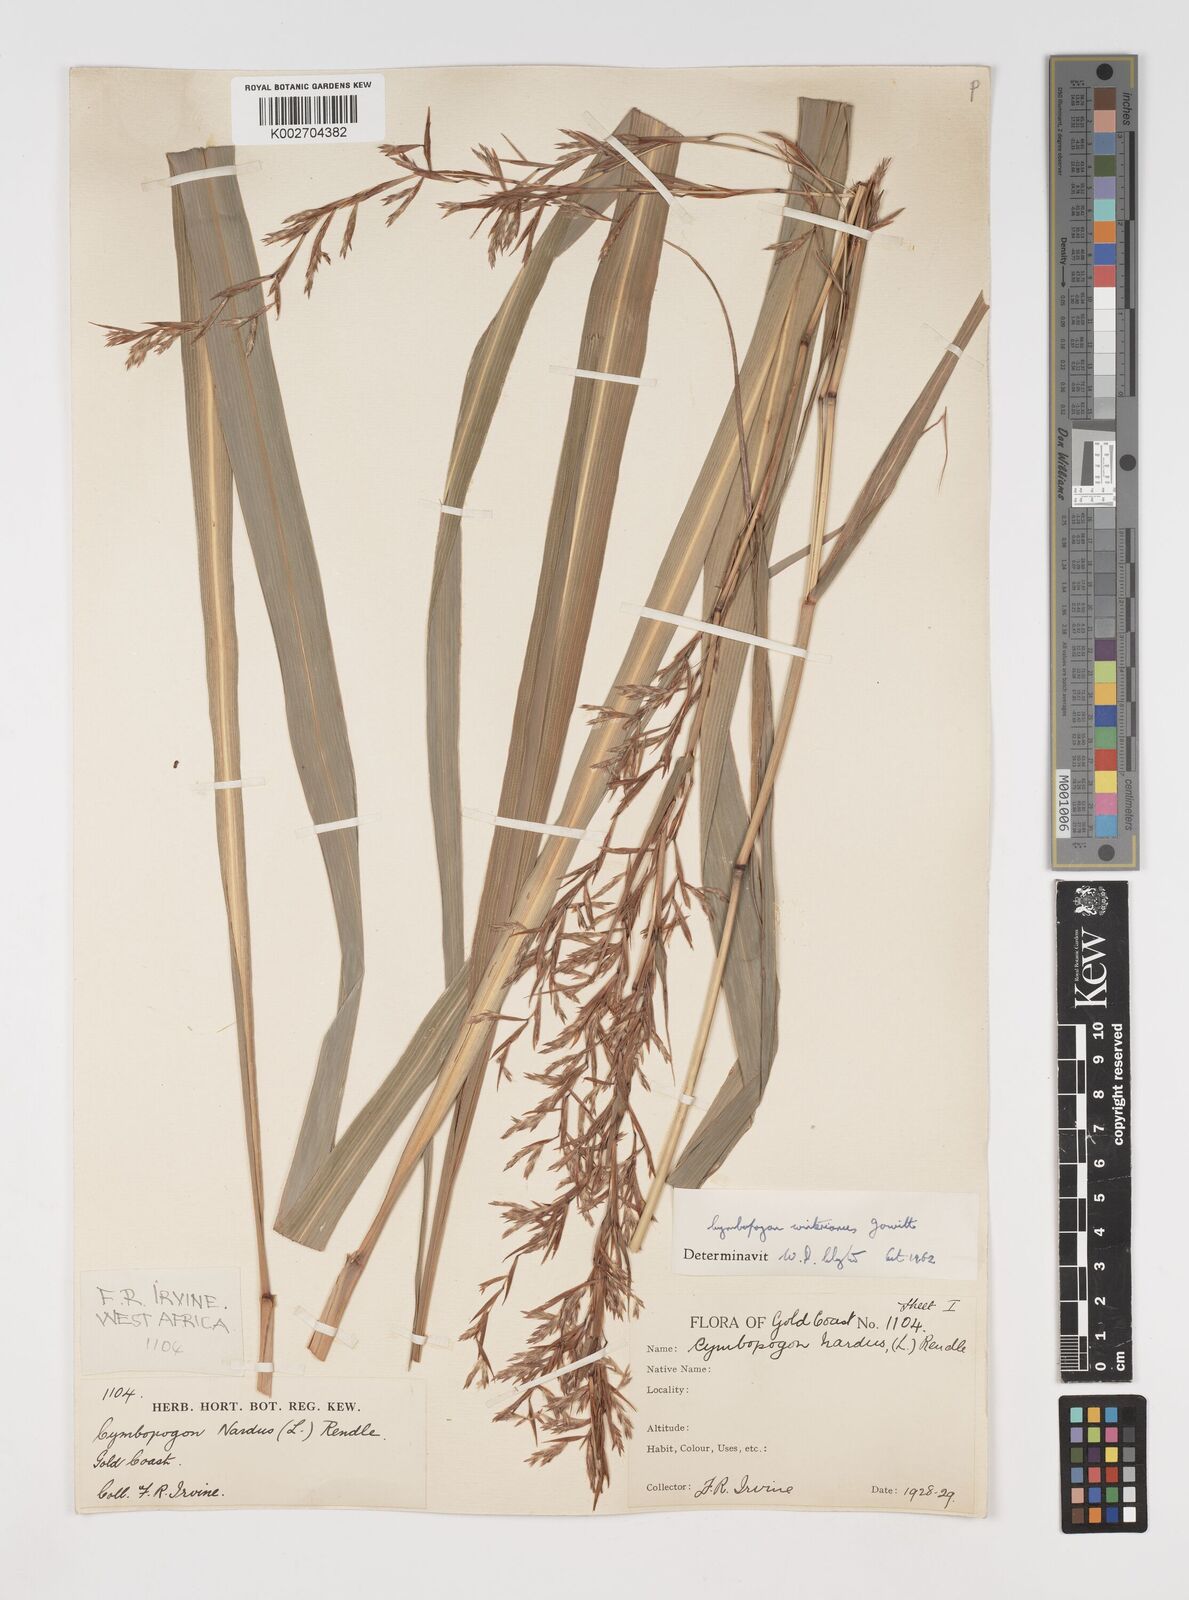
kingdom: Plantae
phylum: Tracheophyta
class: Liliopsida
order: Poales
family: Poaceae
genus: Cymbopogon
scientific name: Cymbopogon winterianus
